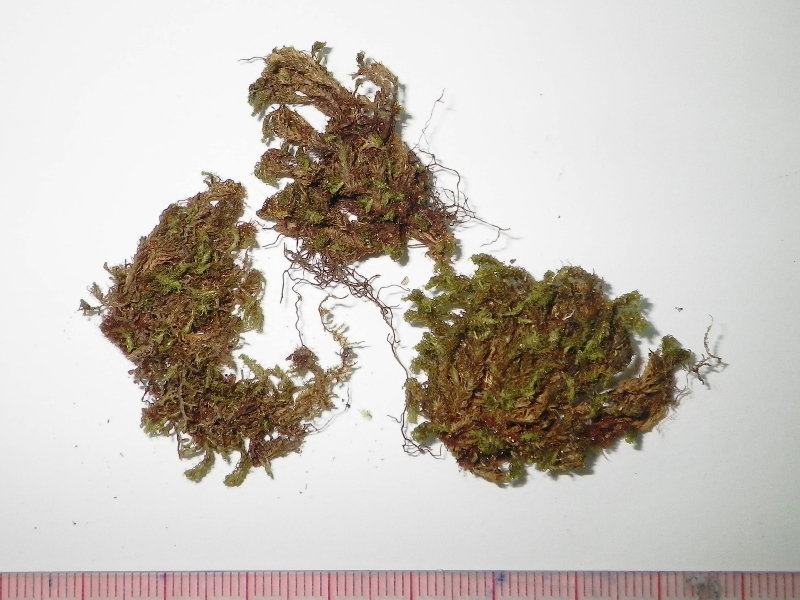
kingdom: Plantae
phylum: Bryophyta
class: Bryopsida
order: Dicranales
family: Dicranaceae
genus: Holomitrium
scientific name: Holomitrium densifolium
